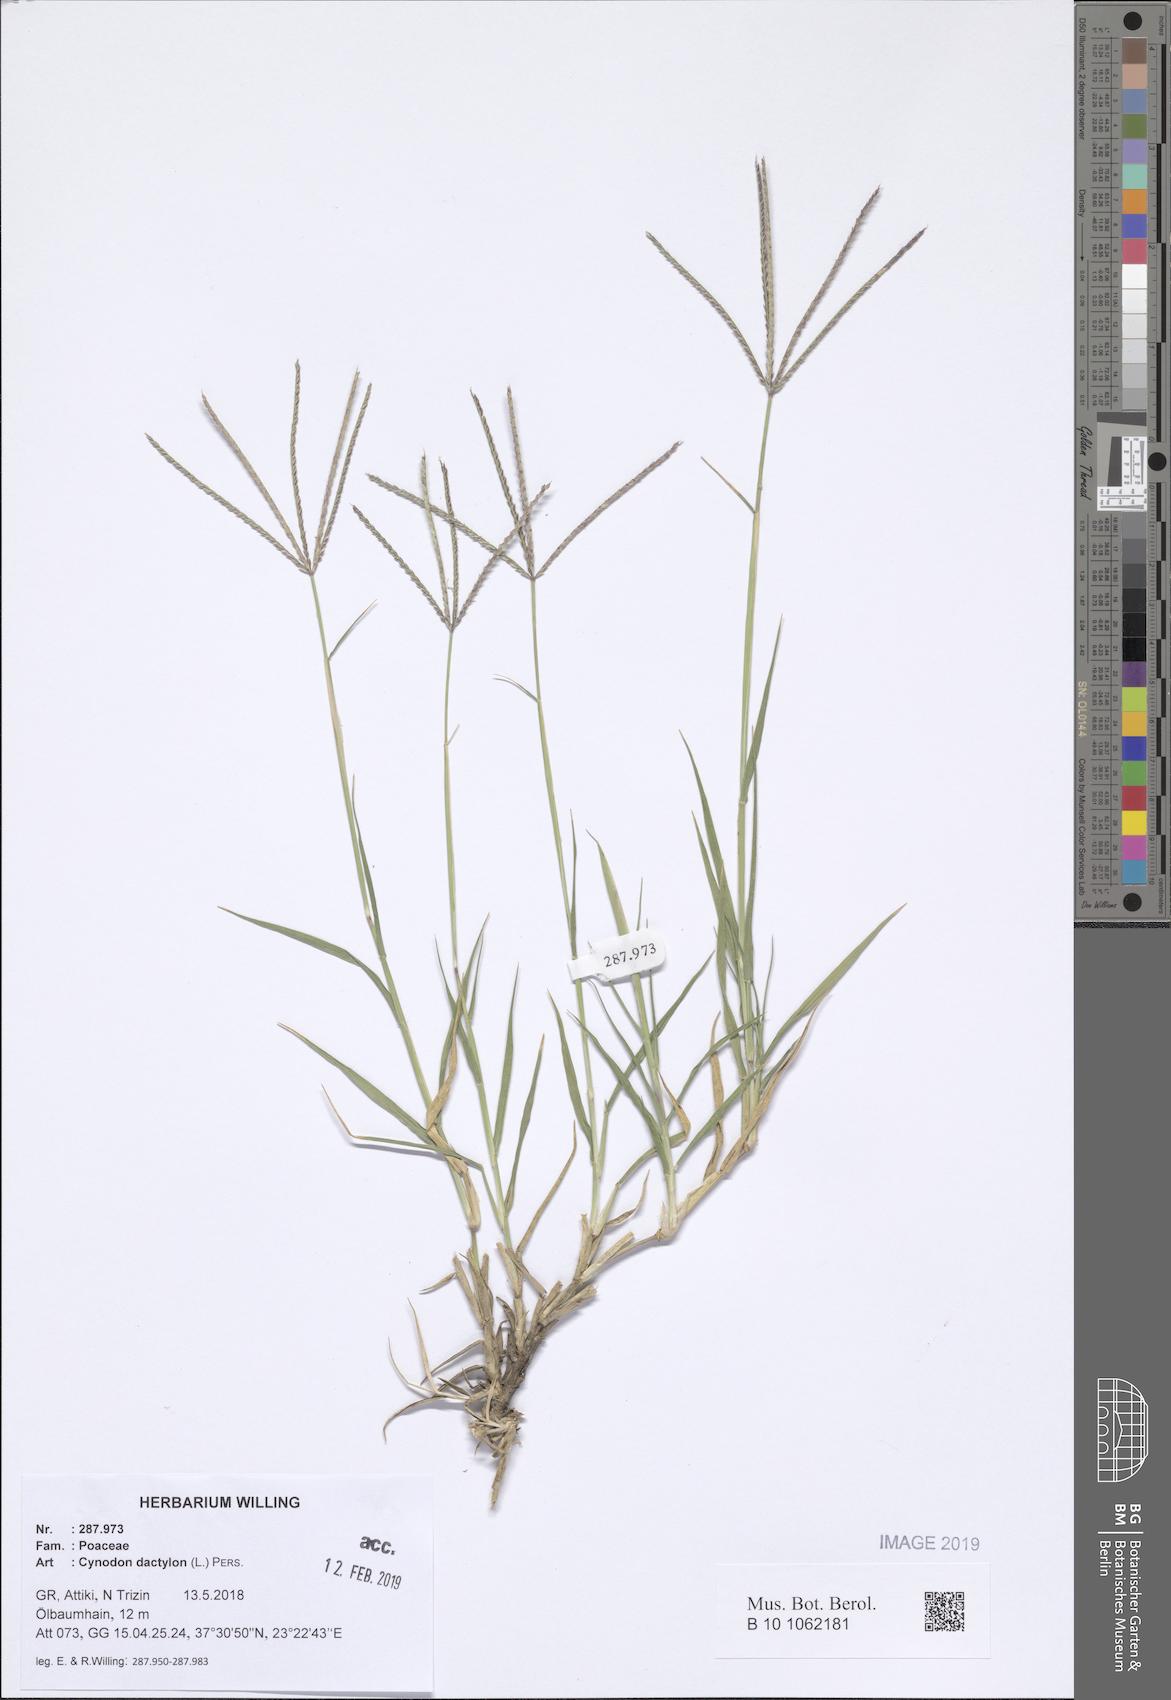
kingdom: Plantae
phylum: Tracheophyta
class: Liliopsida
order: Poales
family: Poaceae
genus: Cynodon
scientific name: Cynodon dactylon
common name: Bermuda grass
